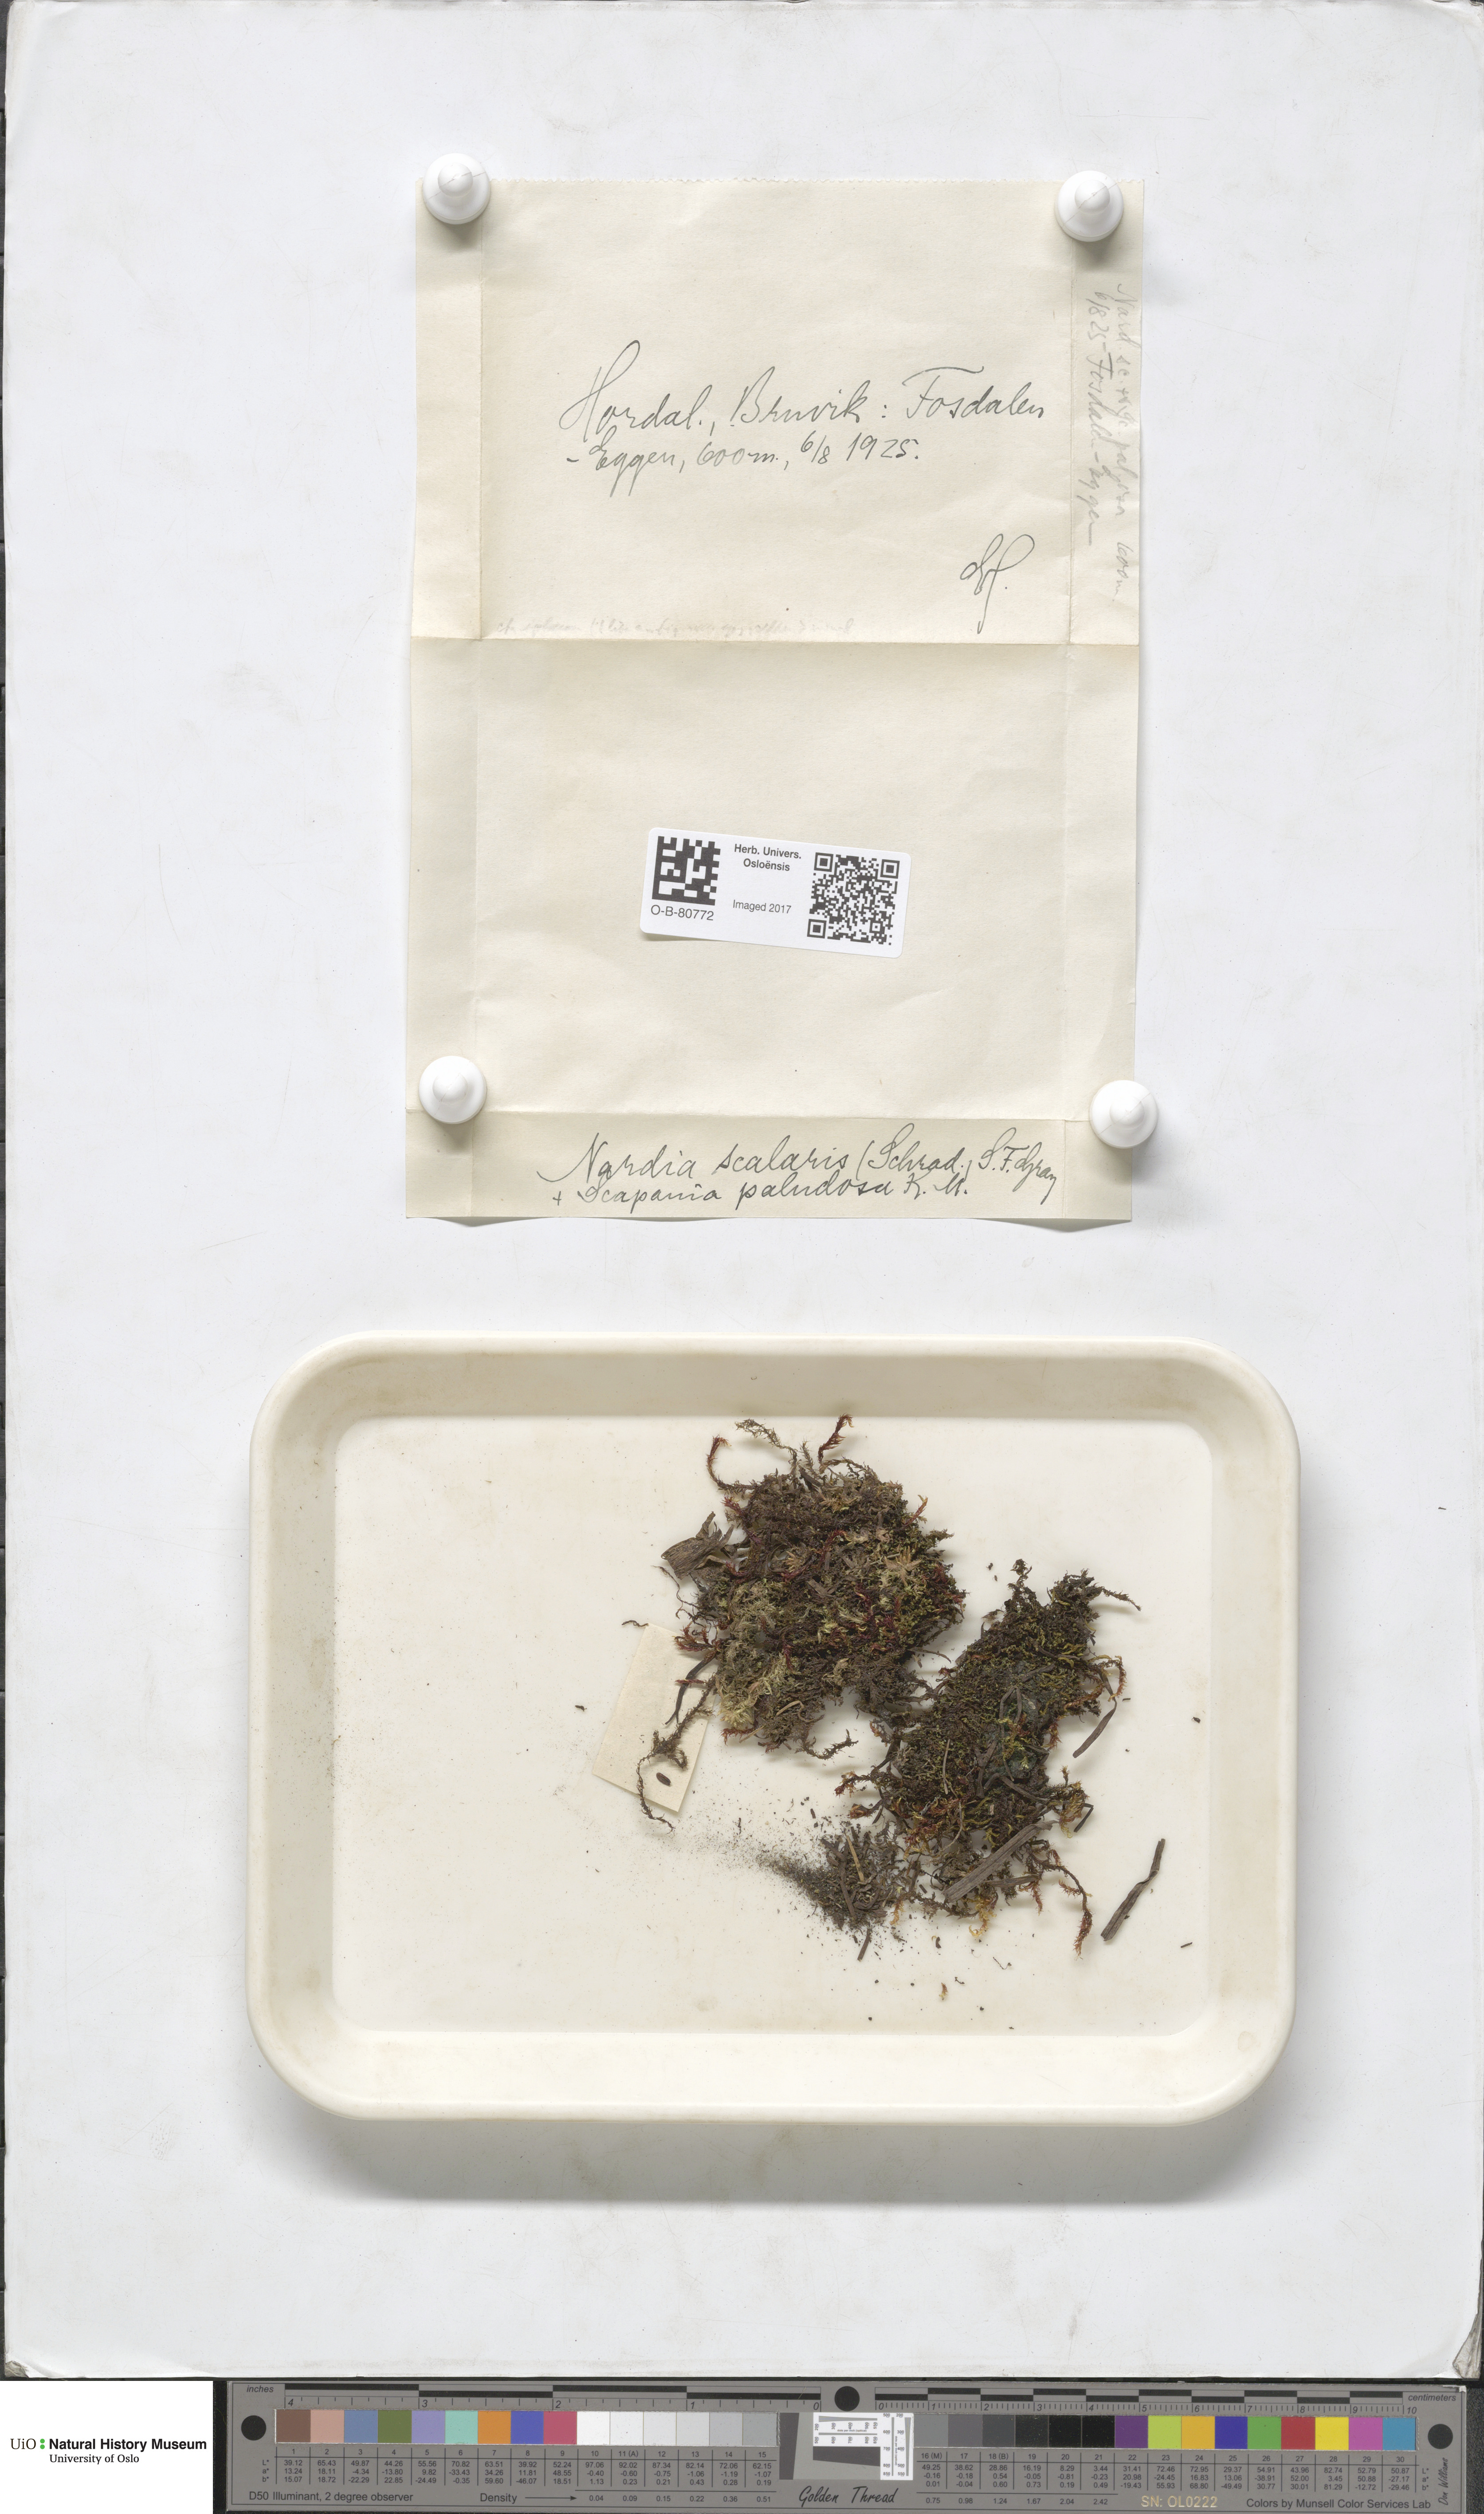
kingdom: Plantae
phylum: Marchantiophyta
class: Jungermanniopsida
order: Jungermanniales
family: Gymnomitriaceae
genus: Nardia
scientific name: Nardia scalaris
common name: Ladder flapwort
